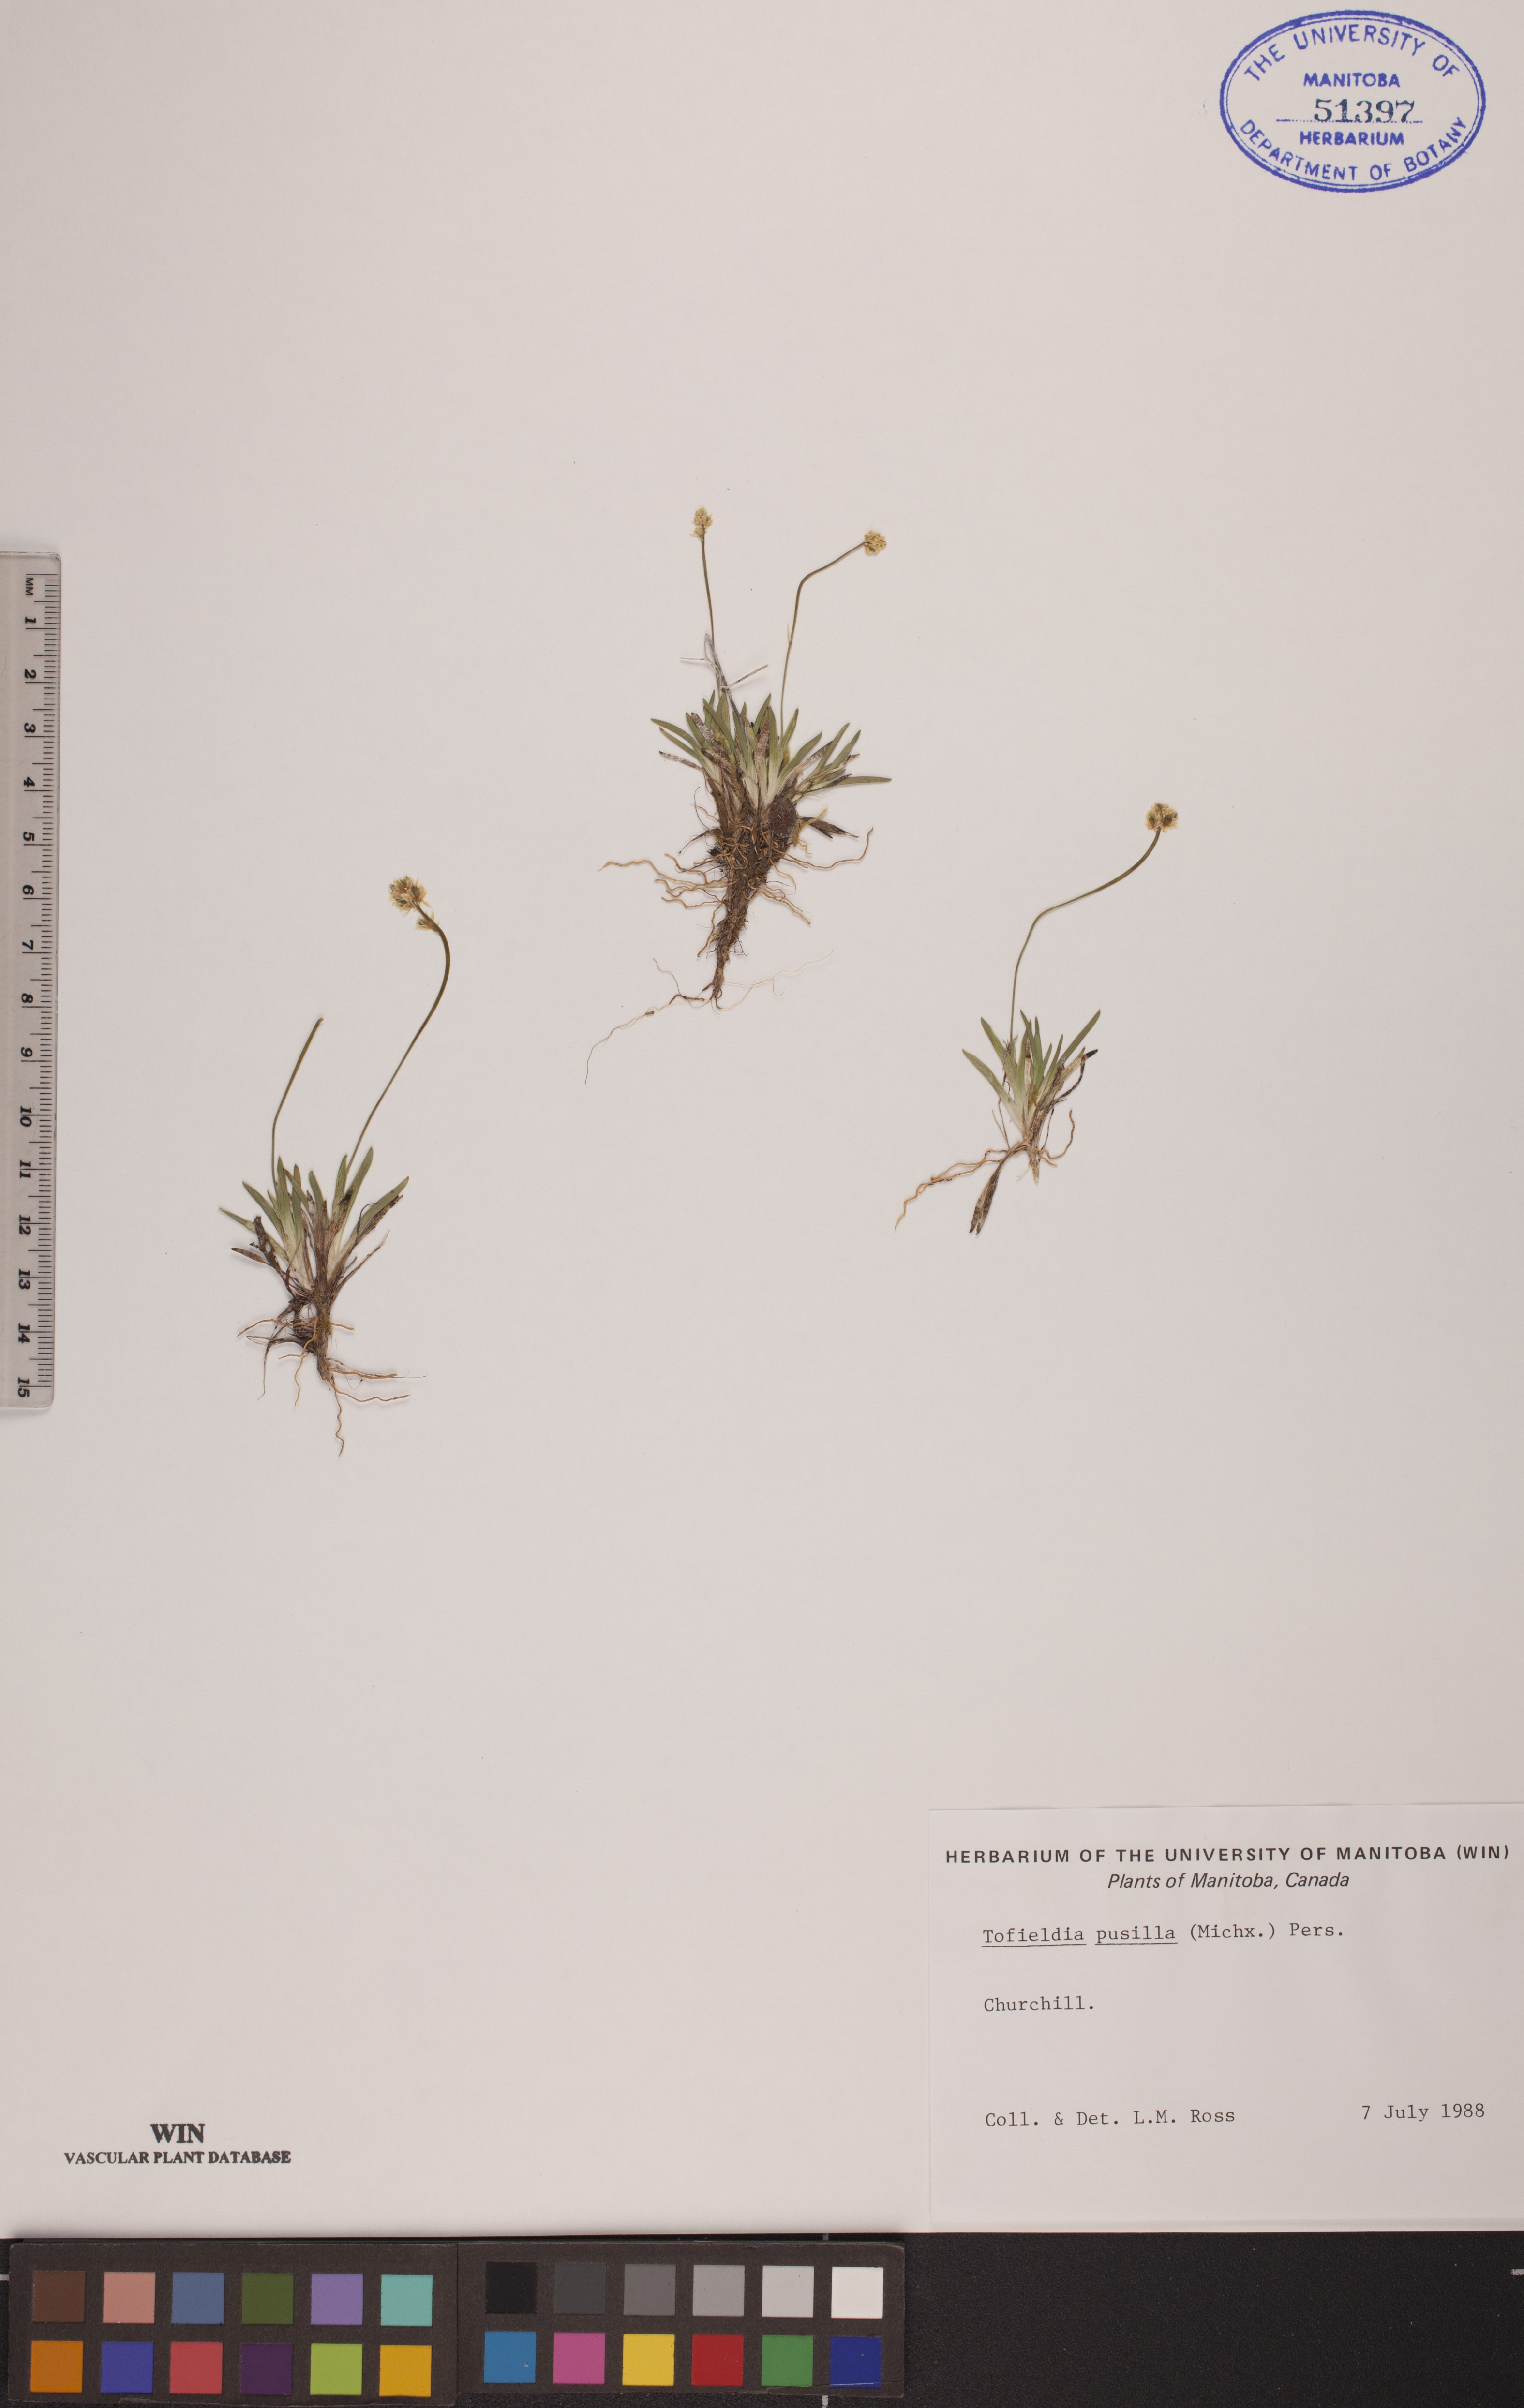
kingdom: Plantae
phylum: Tracheophyta
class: Liliopsida
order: Alismatales
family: Tofieldiaceae
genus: Tofieldia
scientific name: Tofieldia pusilla
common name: Scottish false asphodel
